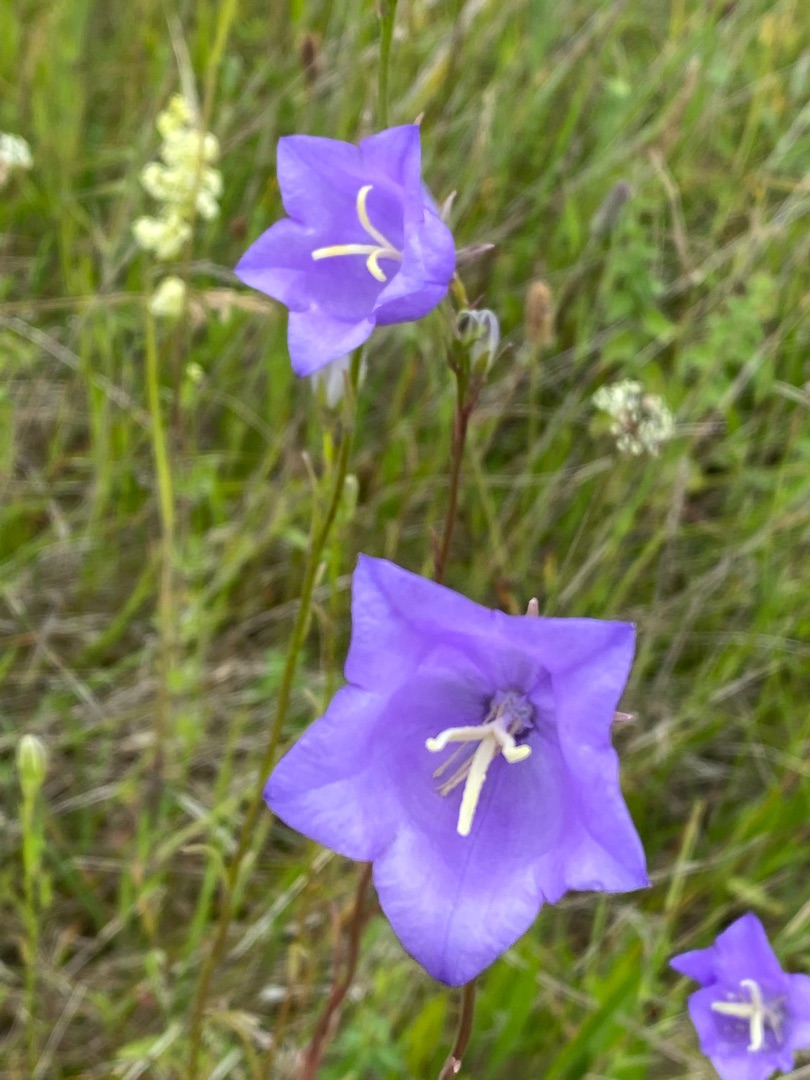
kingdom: Plantae
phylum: Tracheophyta
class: Magnoliopsida
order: Asterales
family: Campanulaceae
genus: Campanula
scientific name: Campanula persicifolia
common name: Smalbladet klokke
